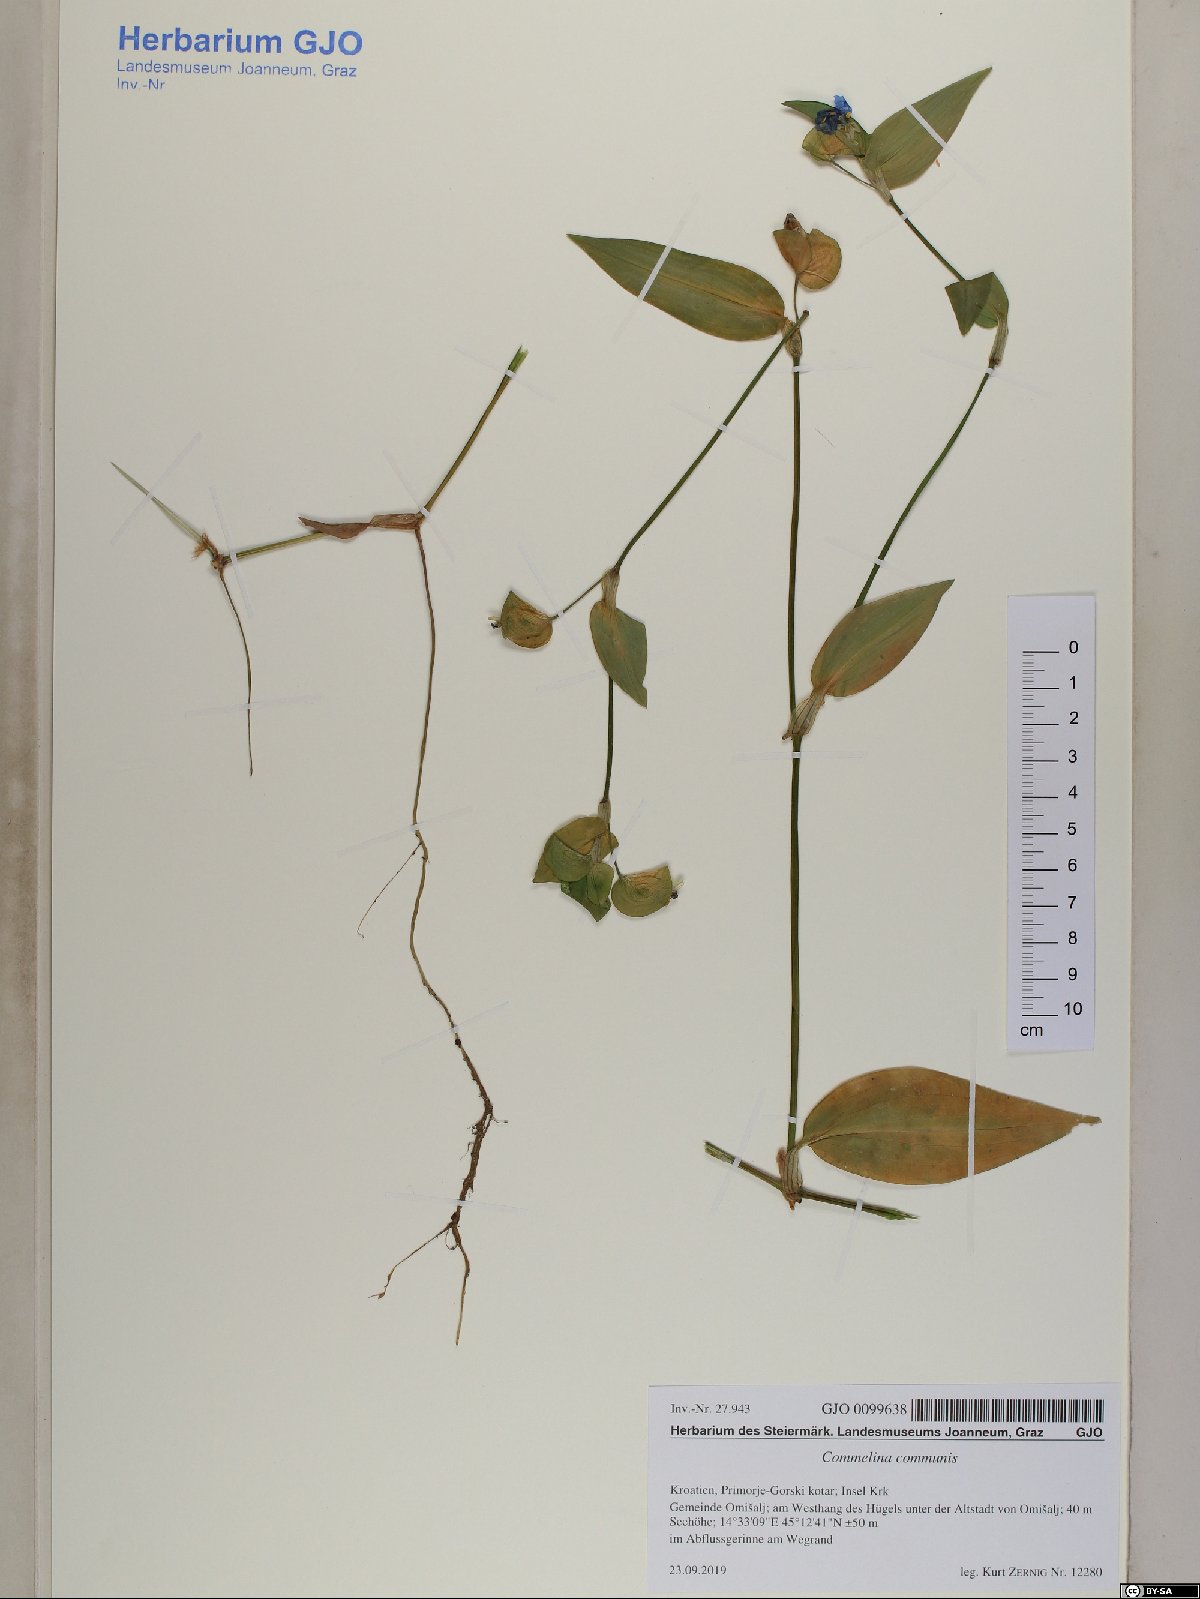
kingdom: Plantae
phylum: Tracheophyta
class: Liliopsida
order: Commelinales
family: Commelinaceae
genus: Commelina
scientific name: Commelina communis
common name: Asiatic dayflower
